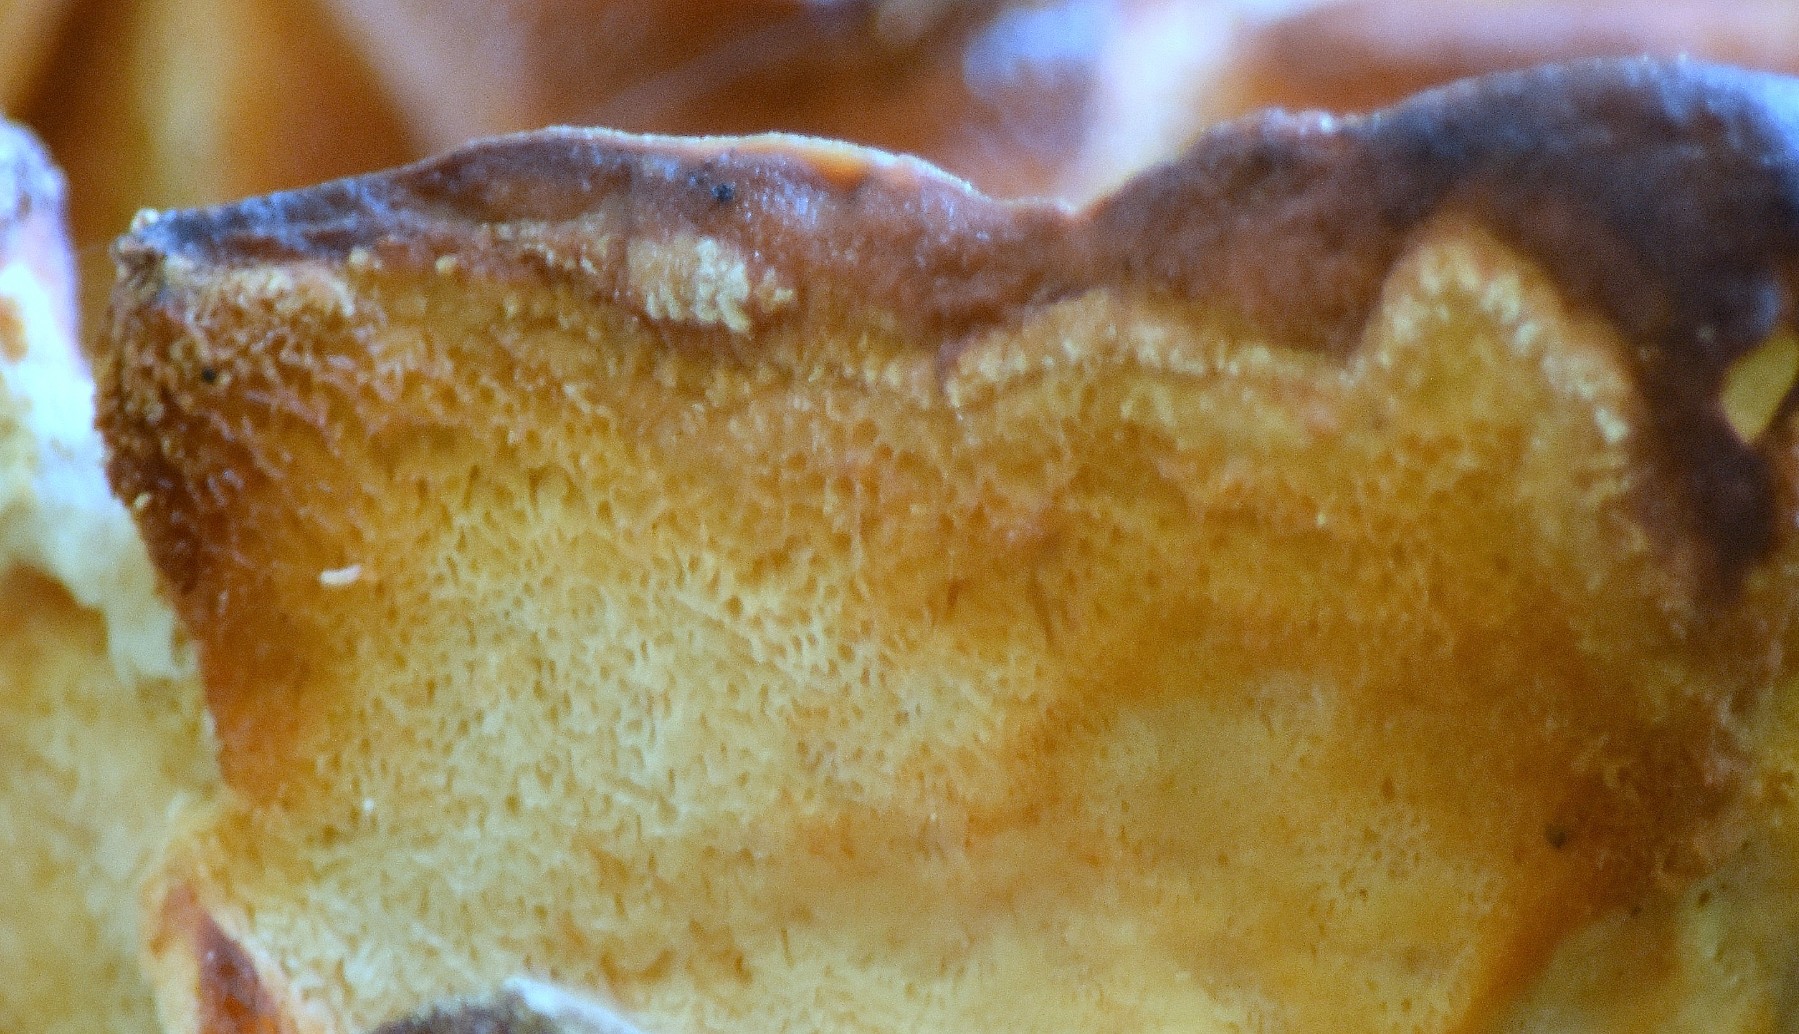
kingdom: Fungi
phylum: Basidiomycota
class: Agaricomycetes
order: Polyporales
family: Laetiporaceae
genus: Laetiporus
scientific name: Laetiporus sulphureus
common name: svovlporesvamp
